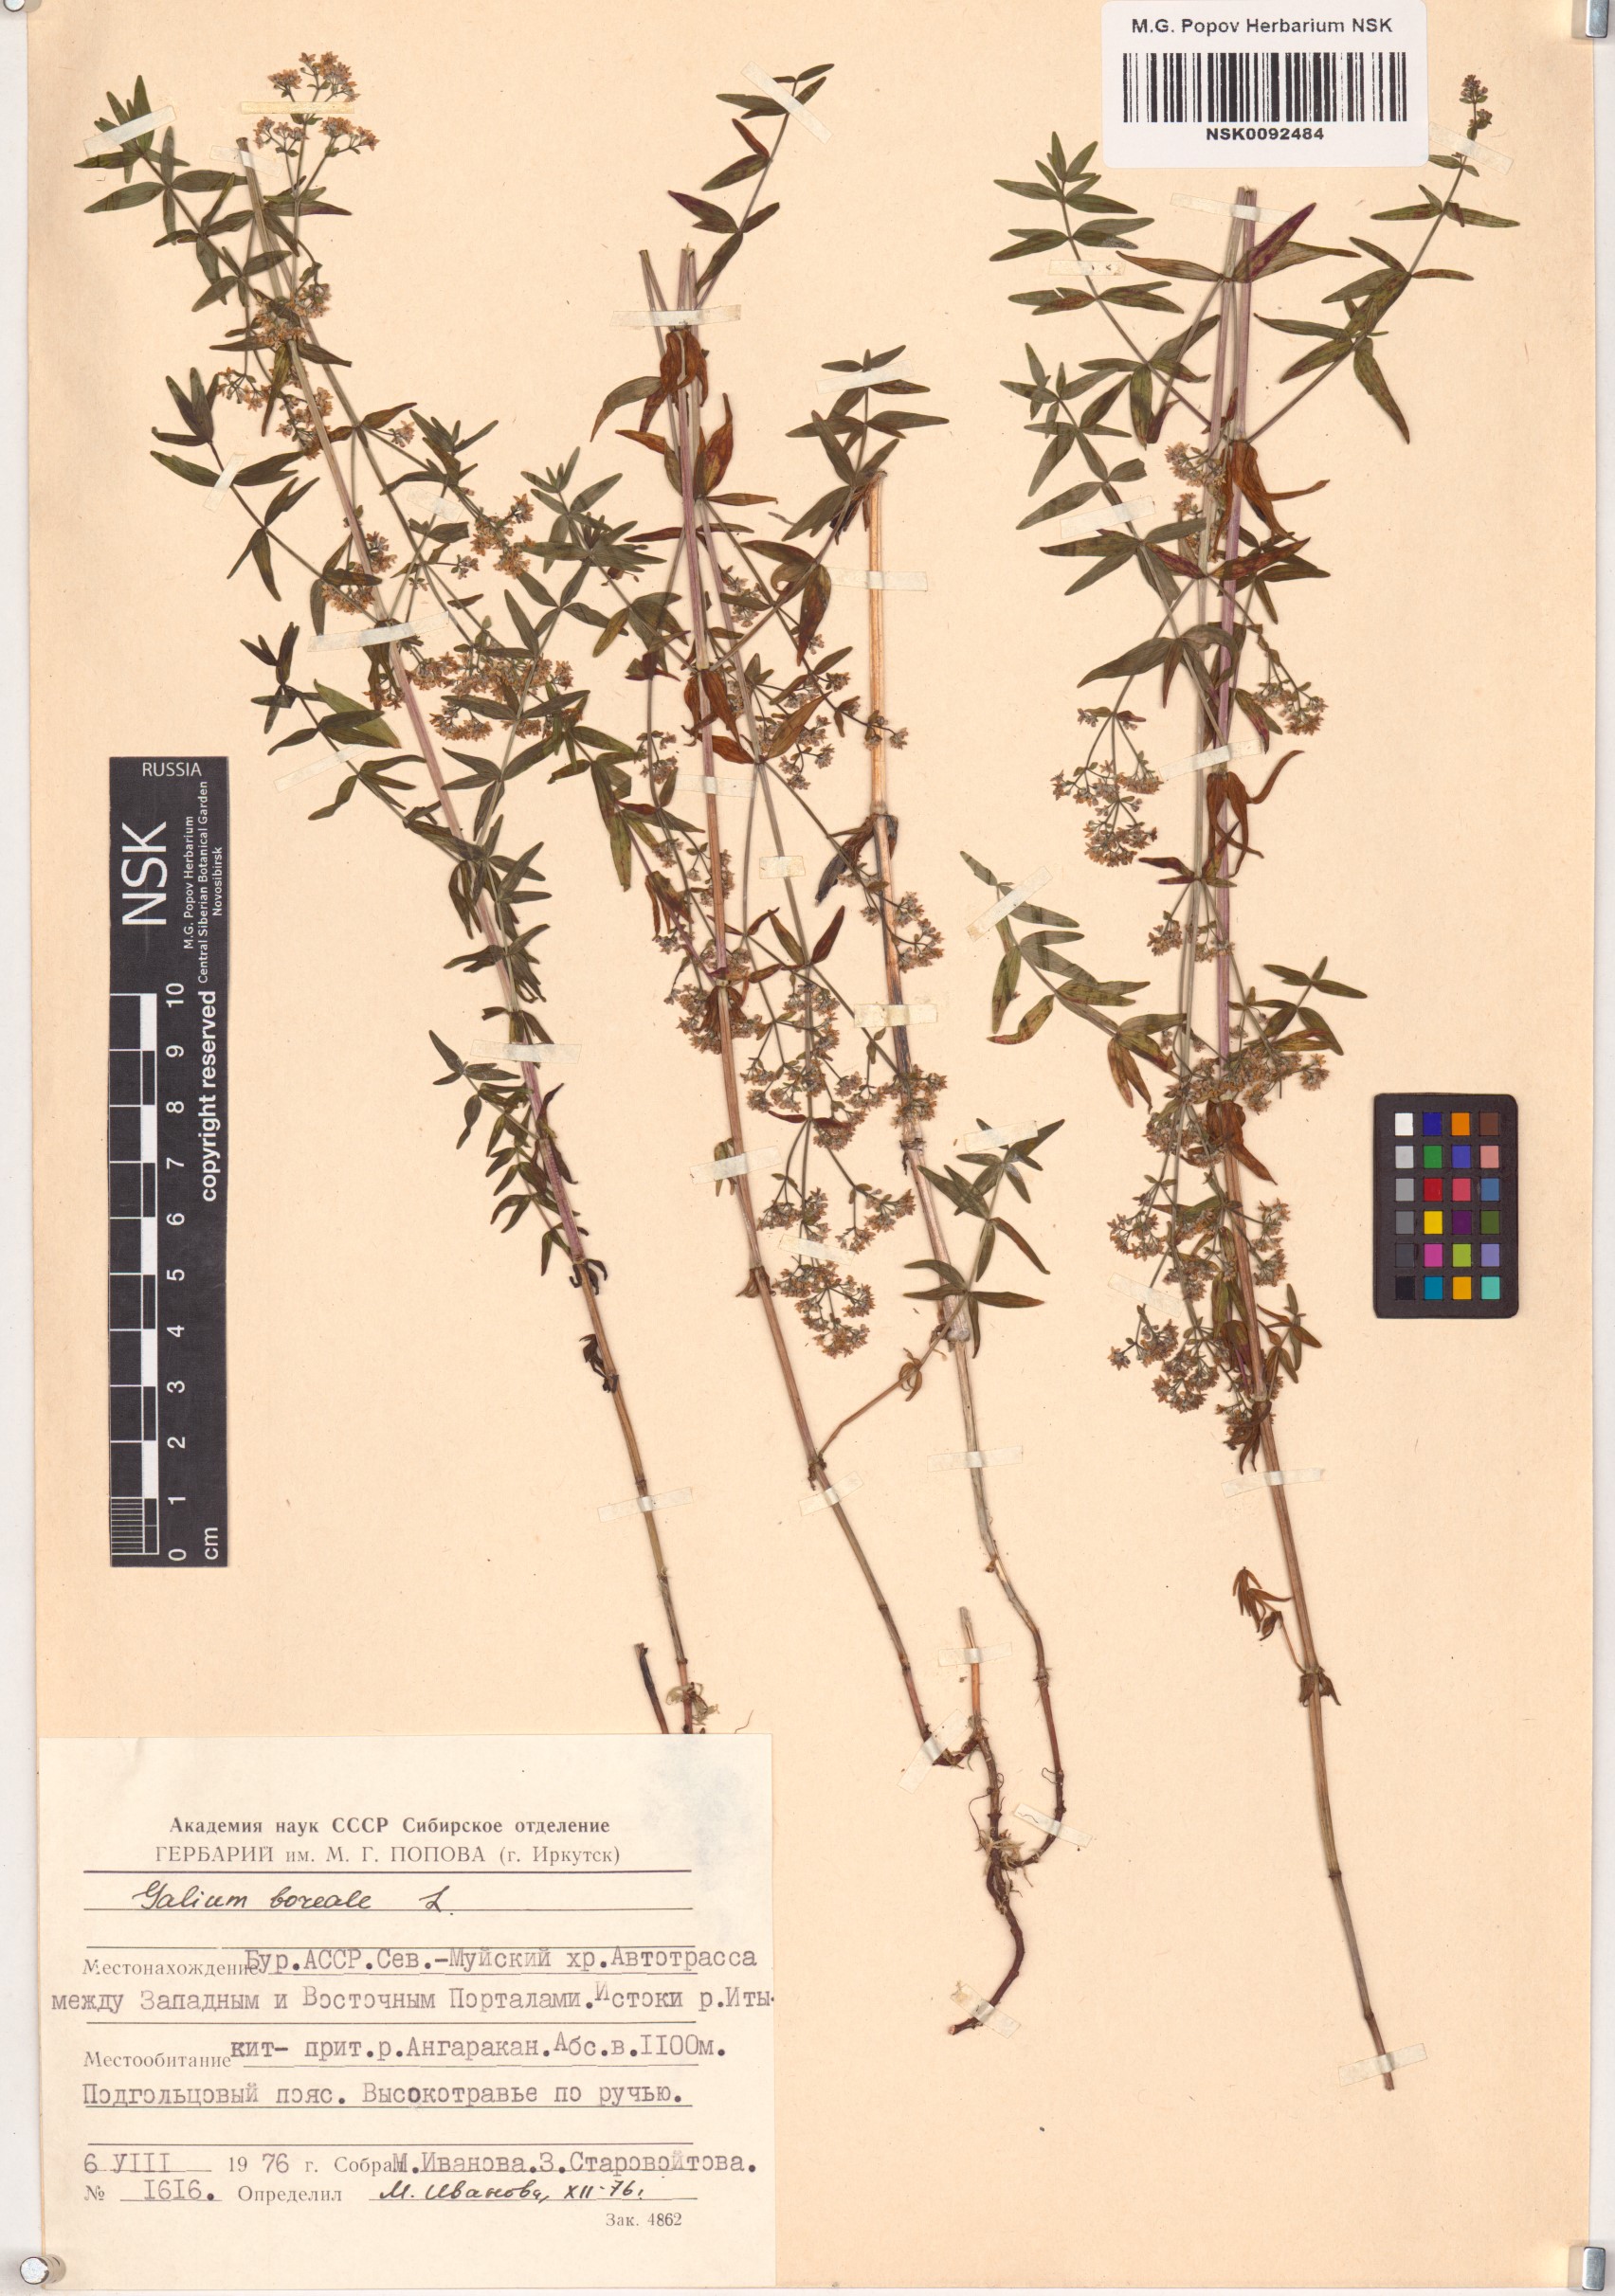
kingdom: Plantae
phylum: Tracheophyta
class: Magnoliopsida
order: Gentianales
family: Rubiaceae
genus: Galium
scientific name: Galium boreale
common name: Northern bedstraw
